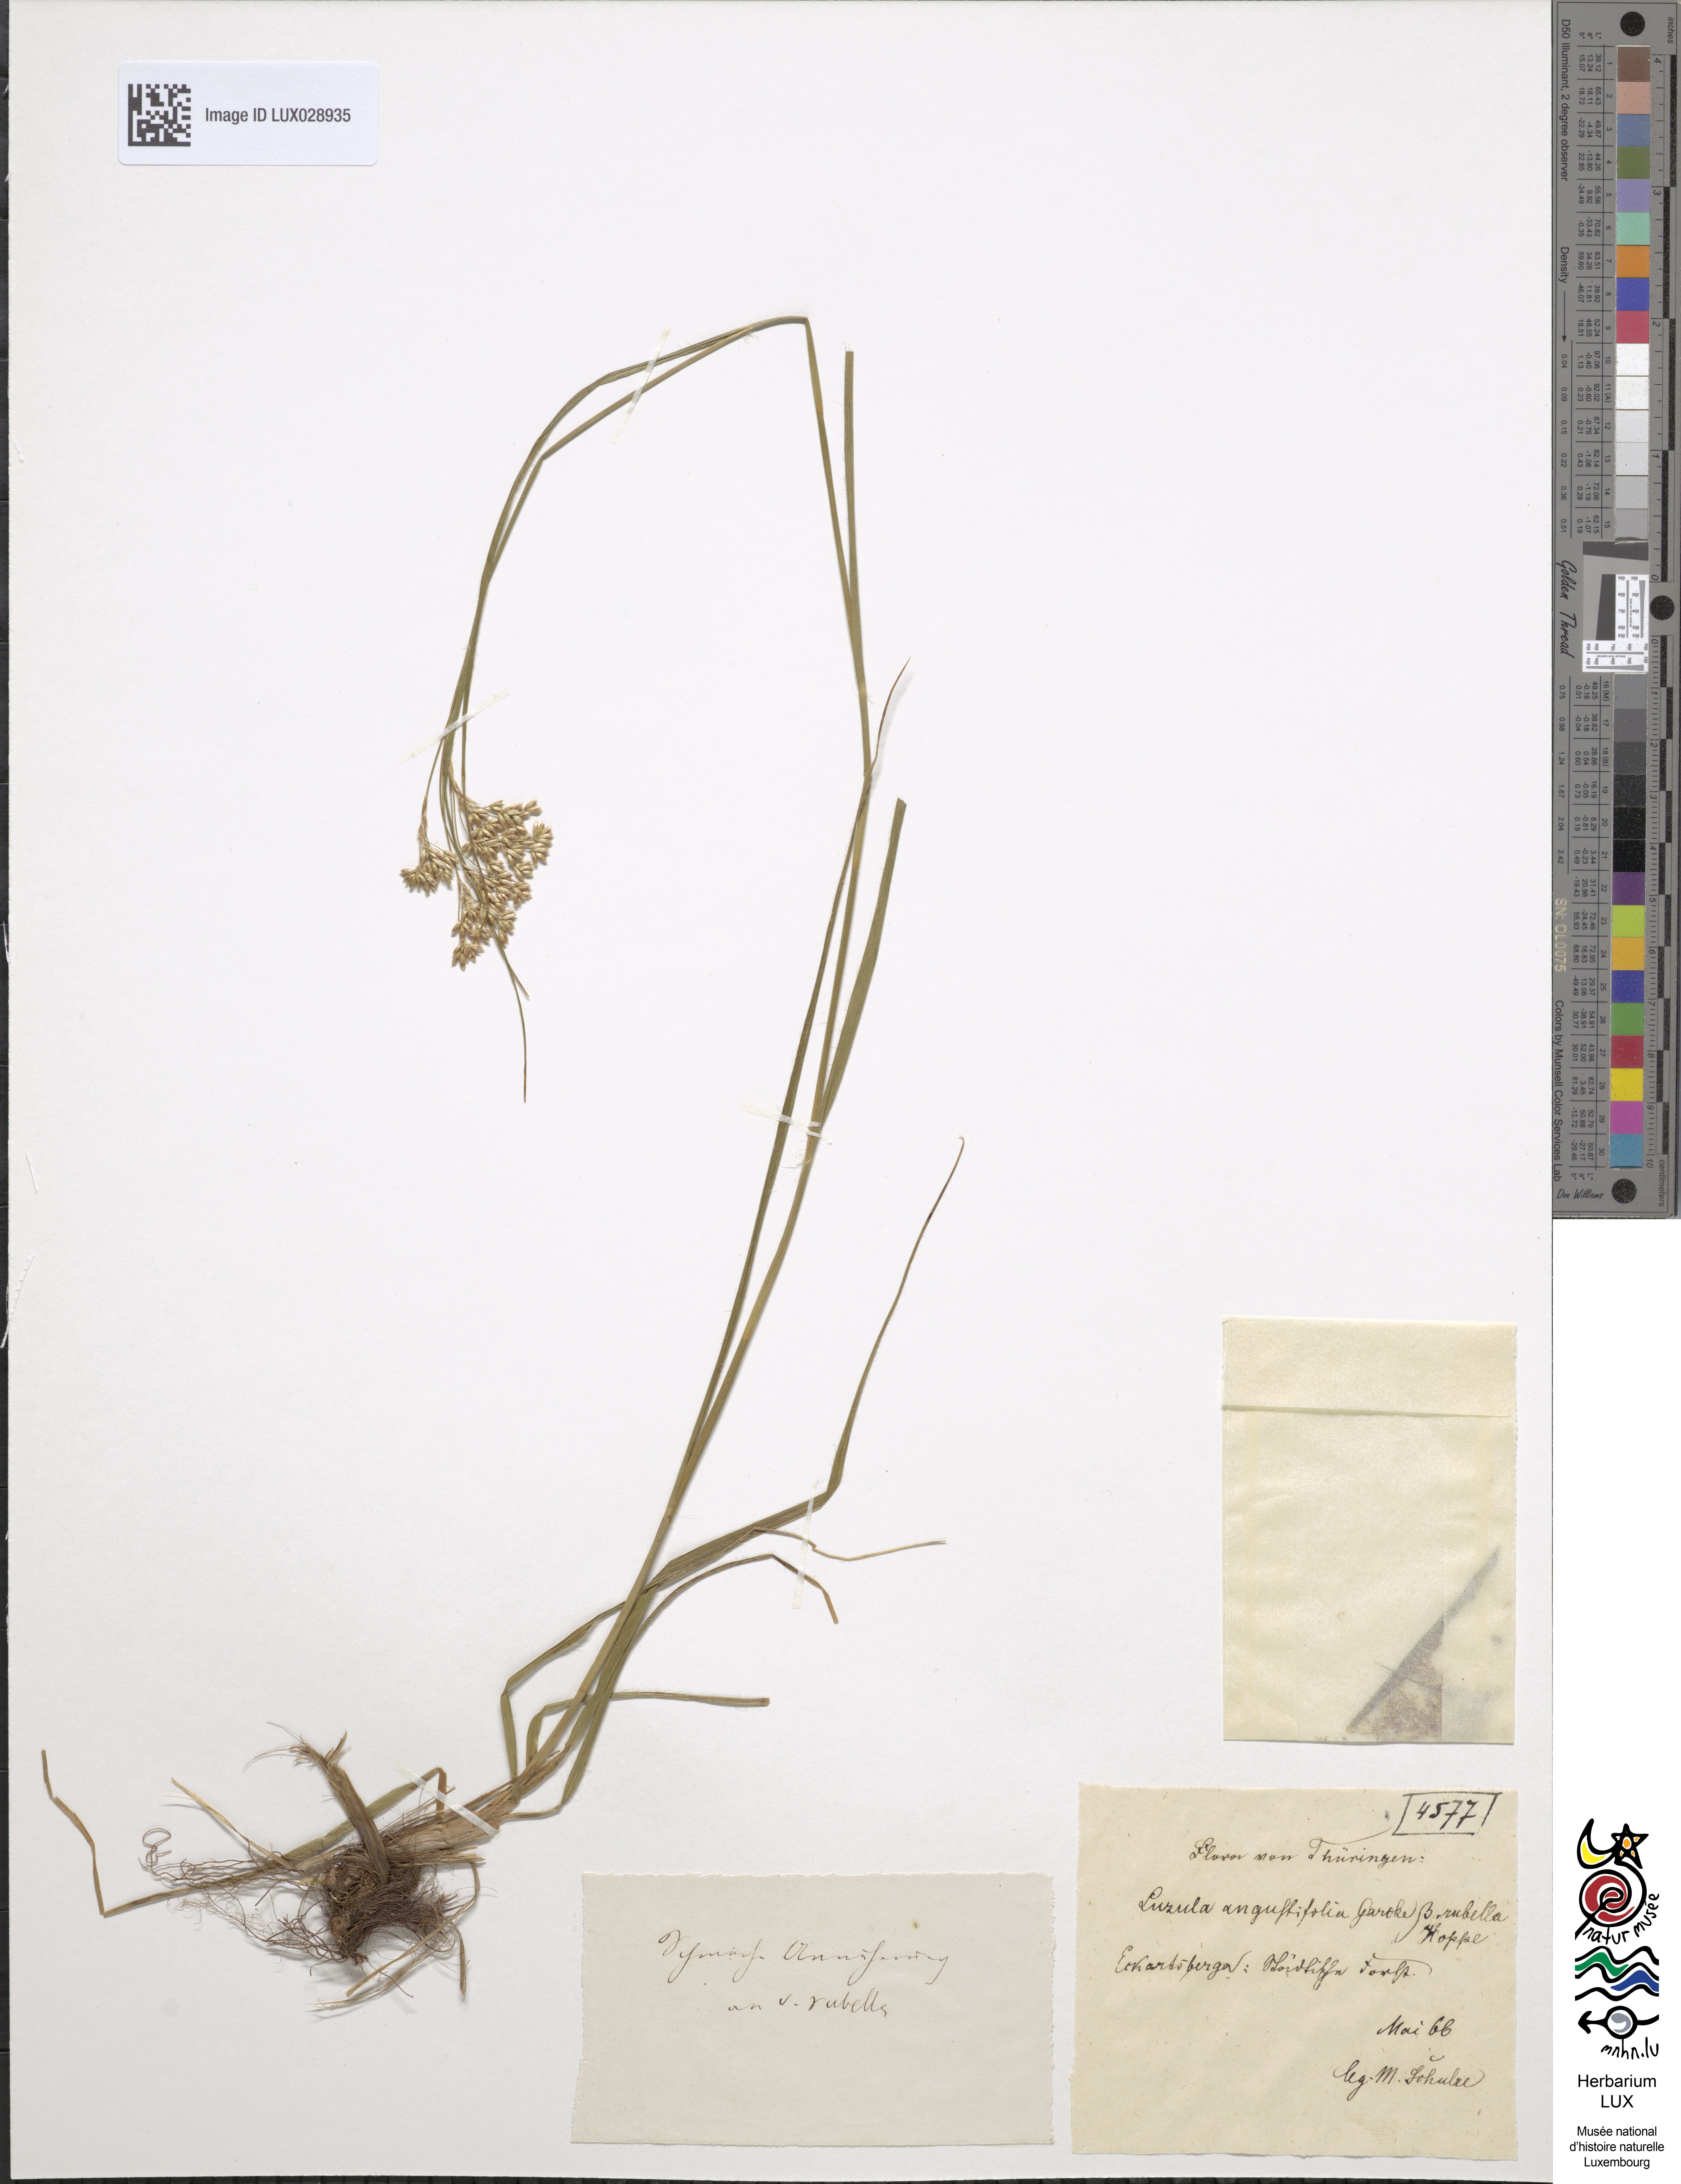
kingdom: Plantae
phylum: Tracheophyta
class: Liliopsida
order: Poales
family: Juncaceae
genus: Luzula
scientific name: Luzula luzuloides
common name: White wood-rush
